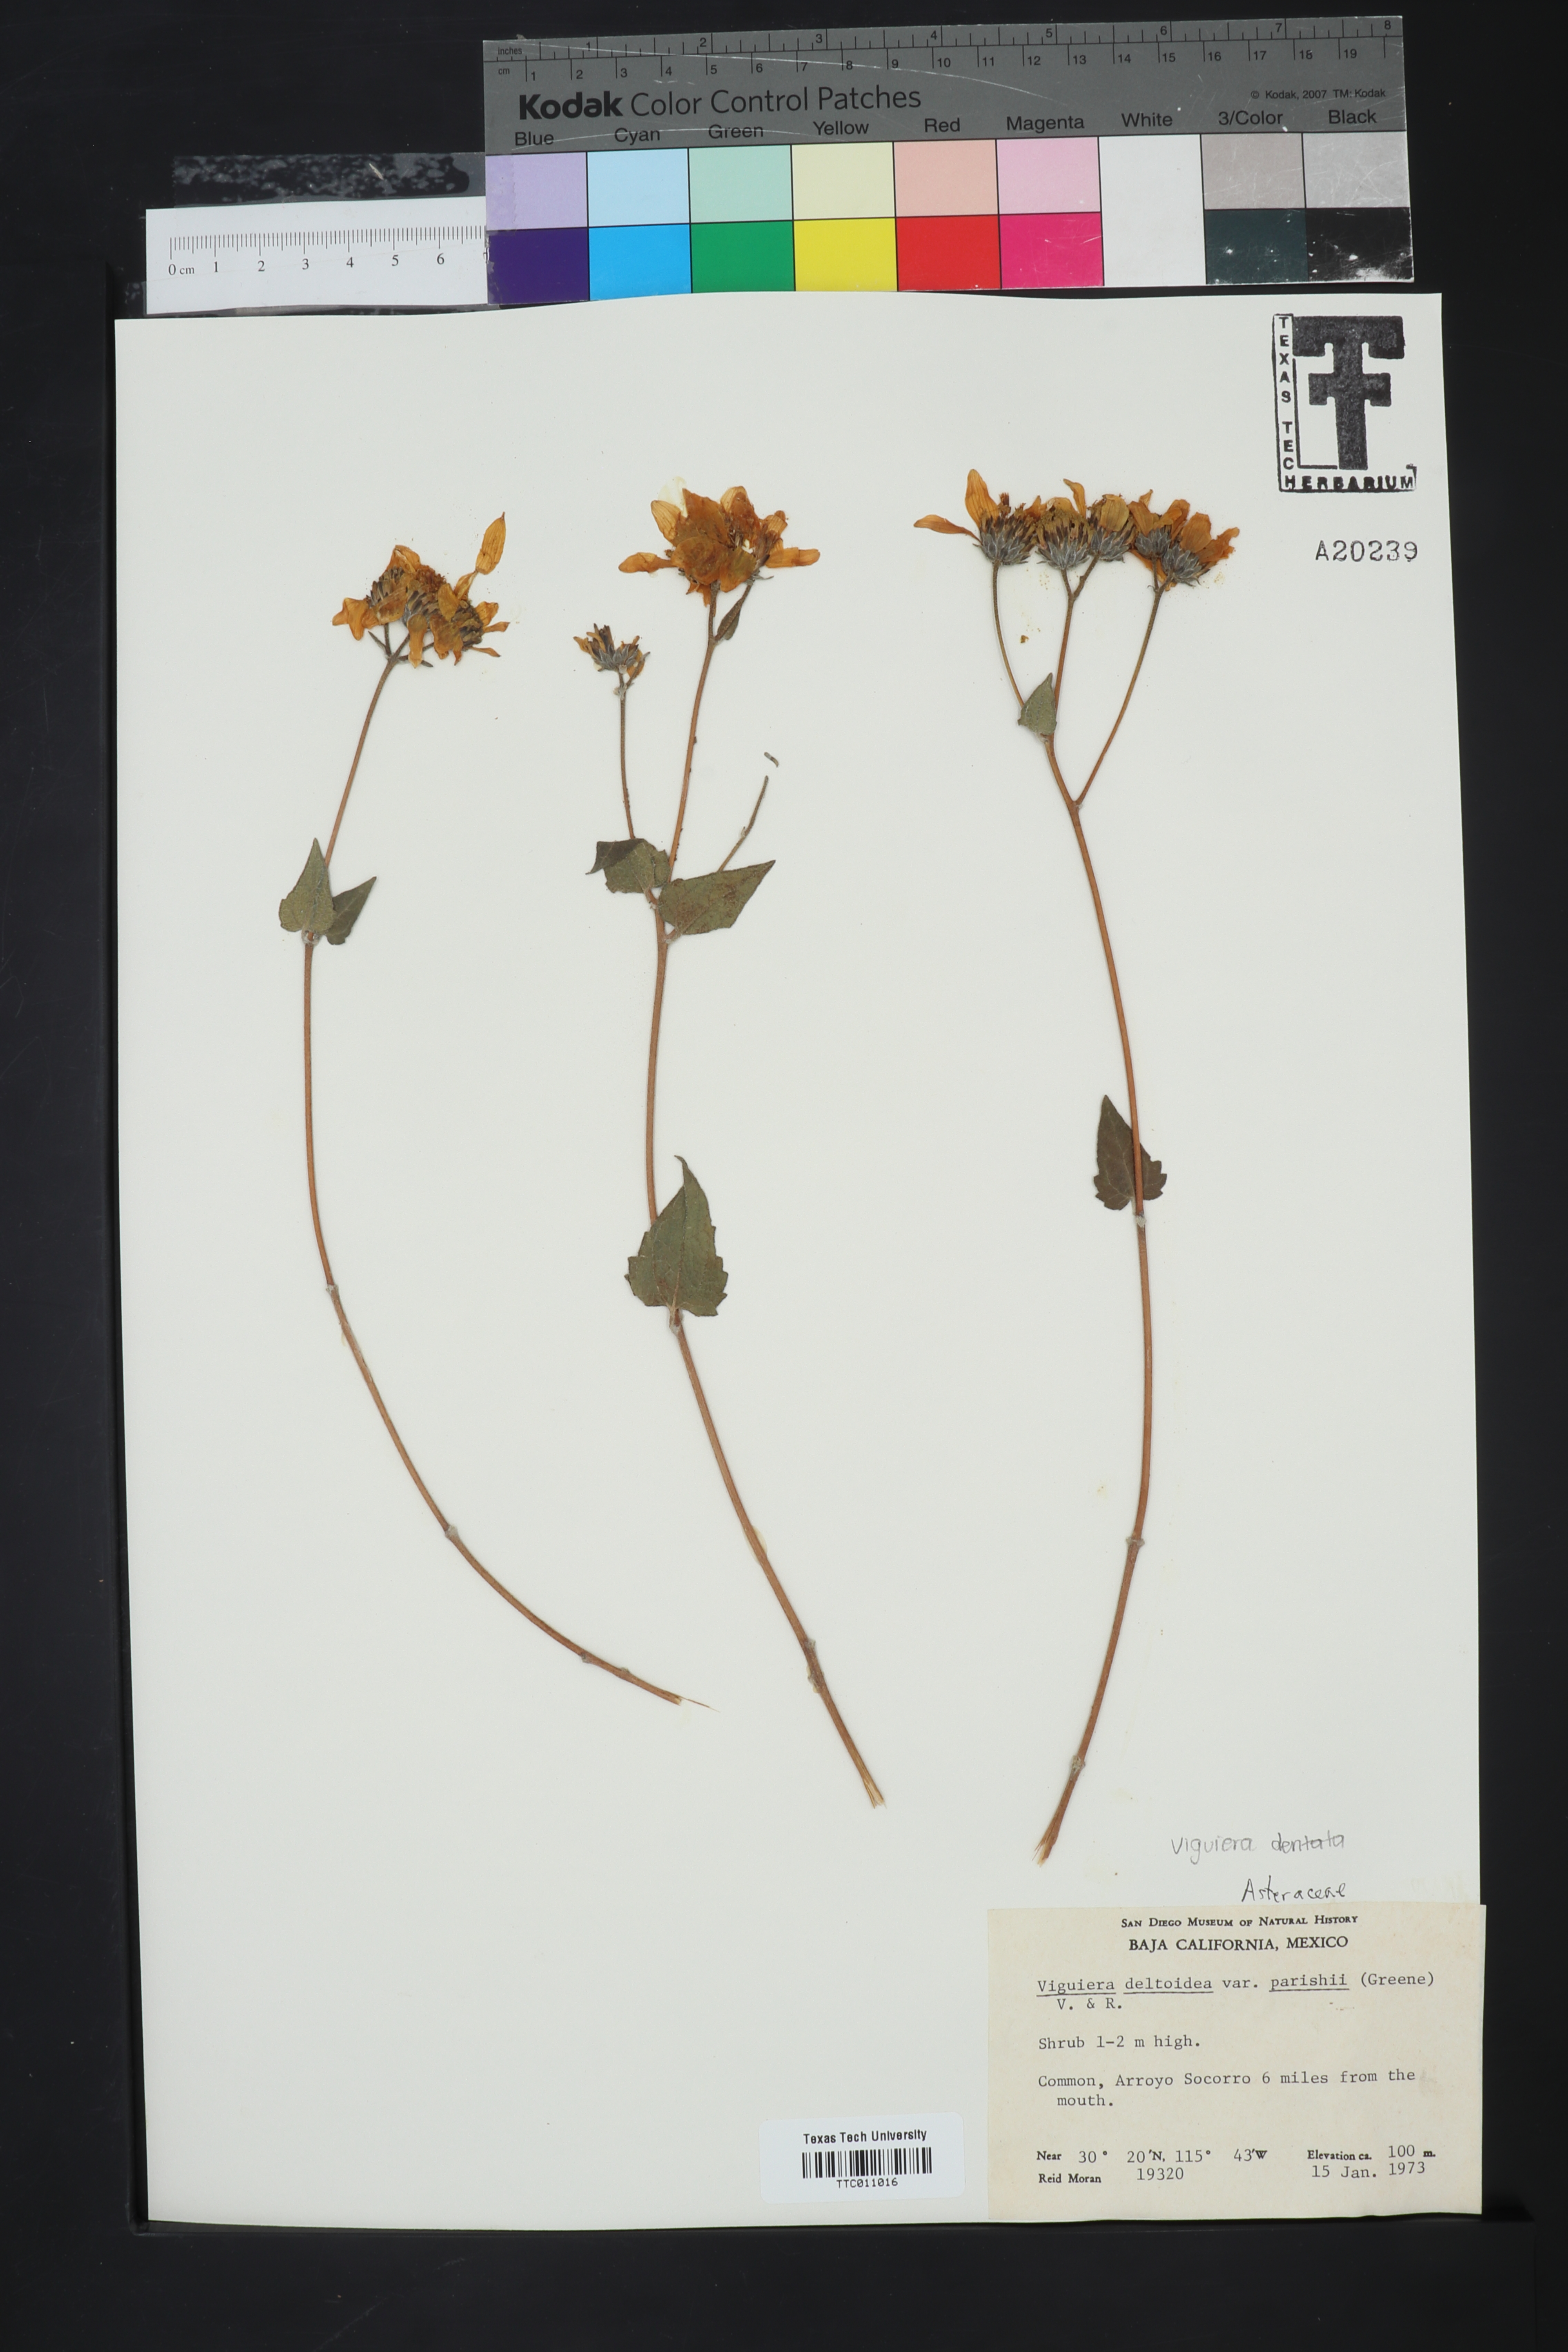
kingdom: Plantae
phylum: Tracheophyta
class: Magnoliopsida
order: Asterales
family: Asteraceae
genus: Bahiopsis
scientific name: Bahiopsis parishii
